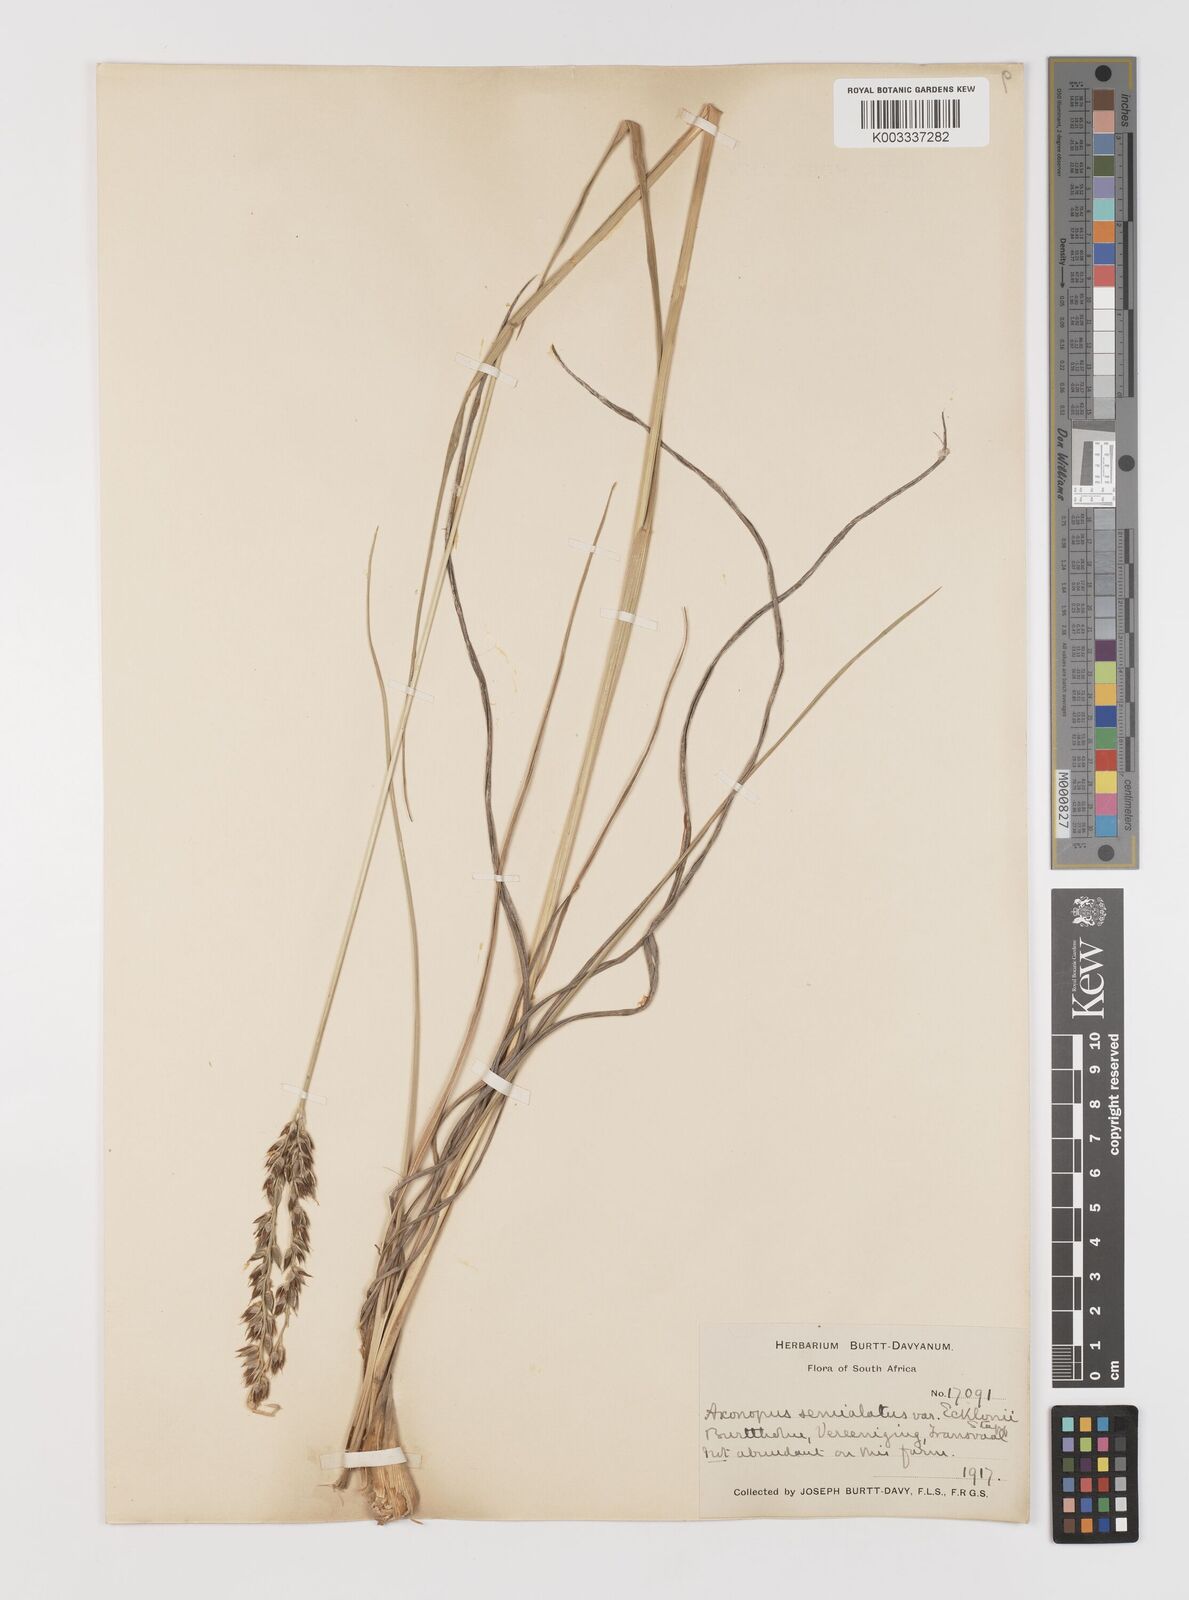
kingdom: Plantae
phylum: Tracheophyta
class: Liliopsida
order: Poales
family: Poaceae
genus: Alloteropsis
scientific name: Alloteropsis semialata
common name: Cockatoo grass
